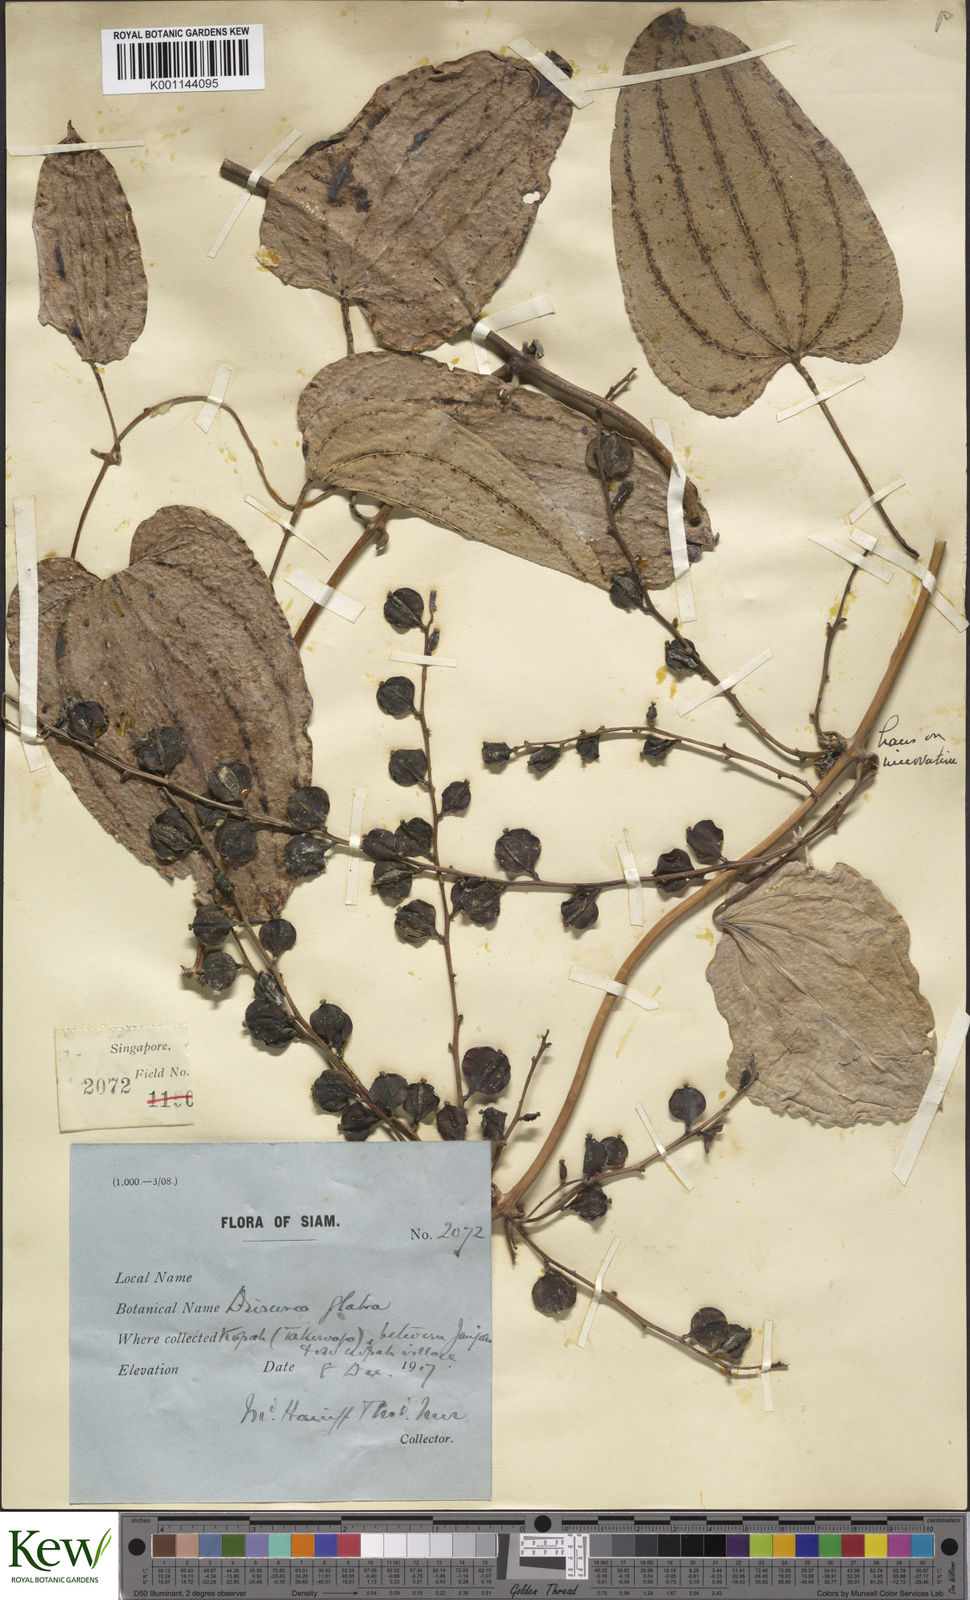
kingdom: Plantae
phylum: Tracheophyta
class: Liliopsida
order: Dioscoreales
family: Dioscoreaceae
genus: Dioscorea
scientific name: Dioscorea glabra
